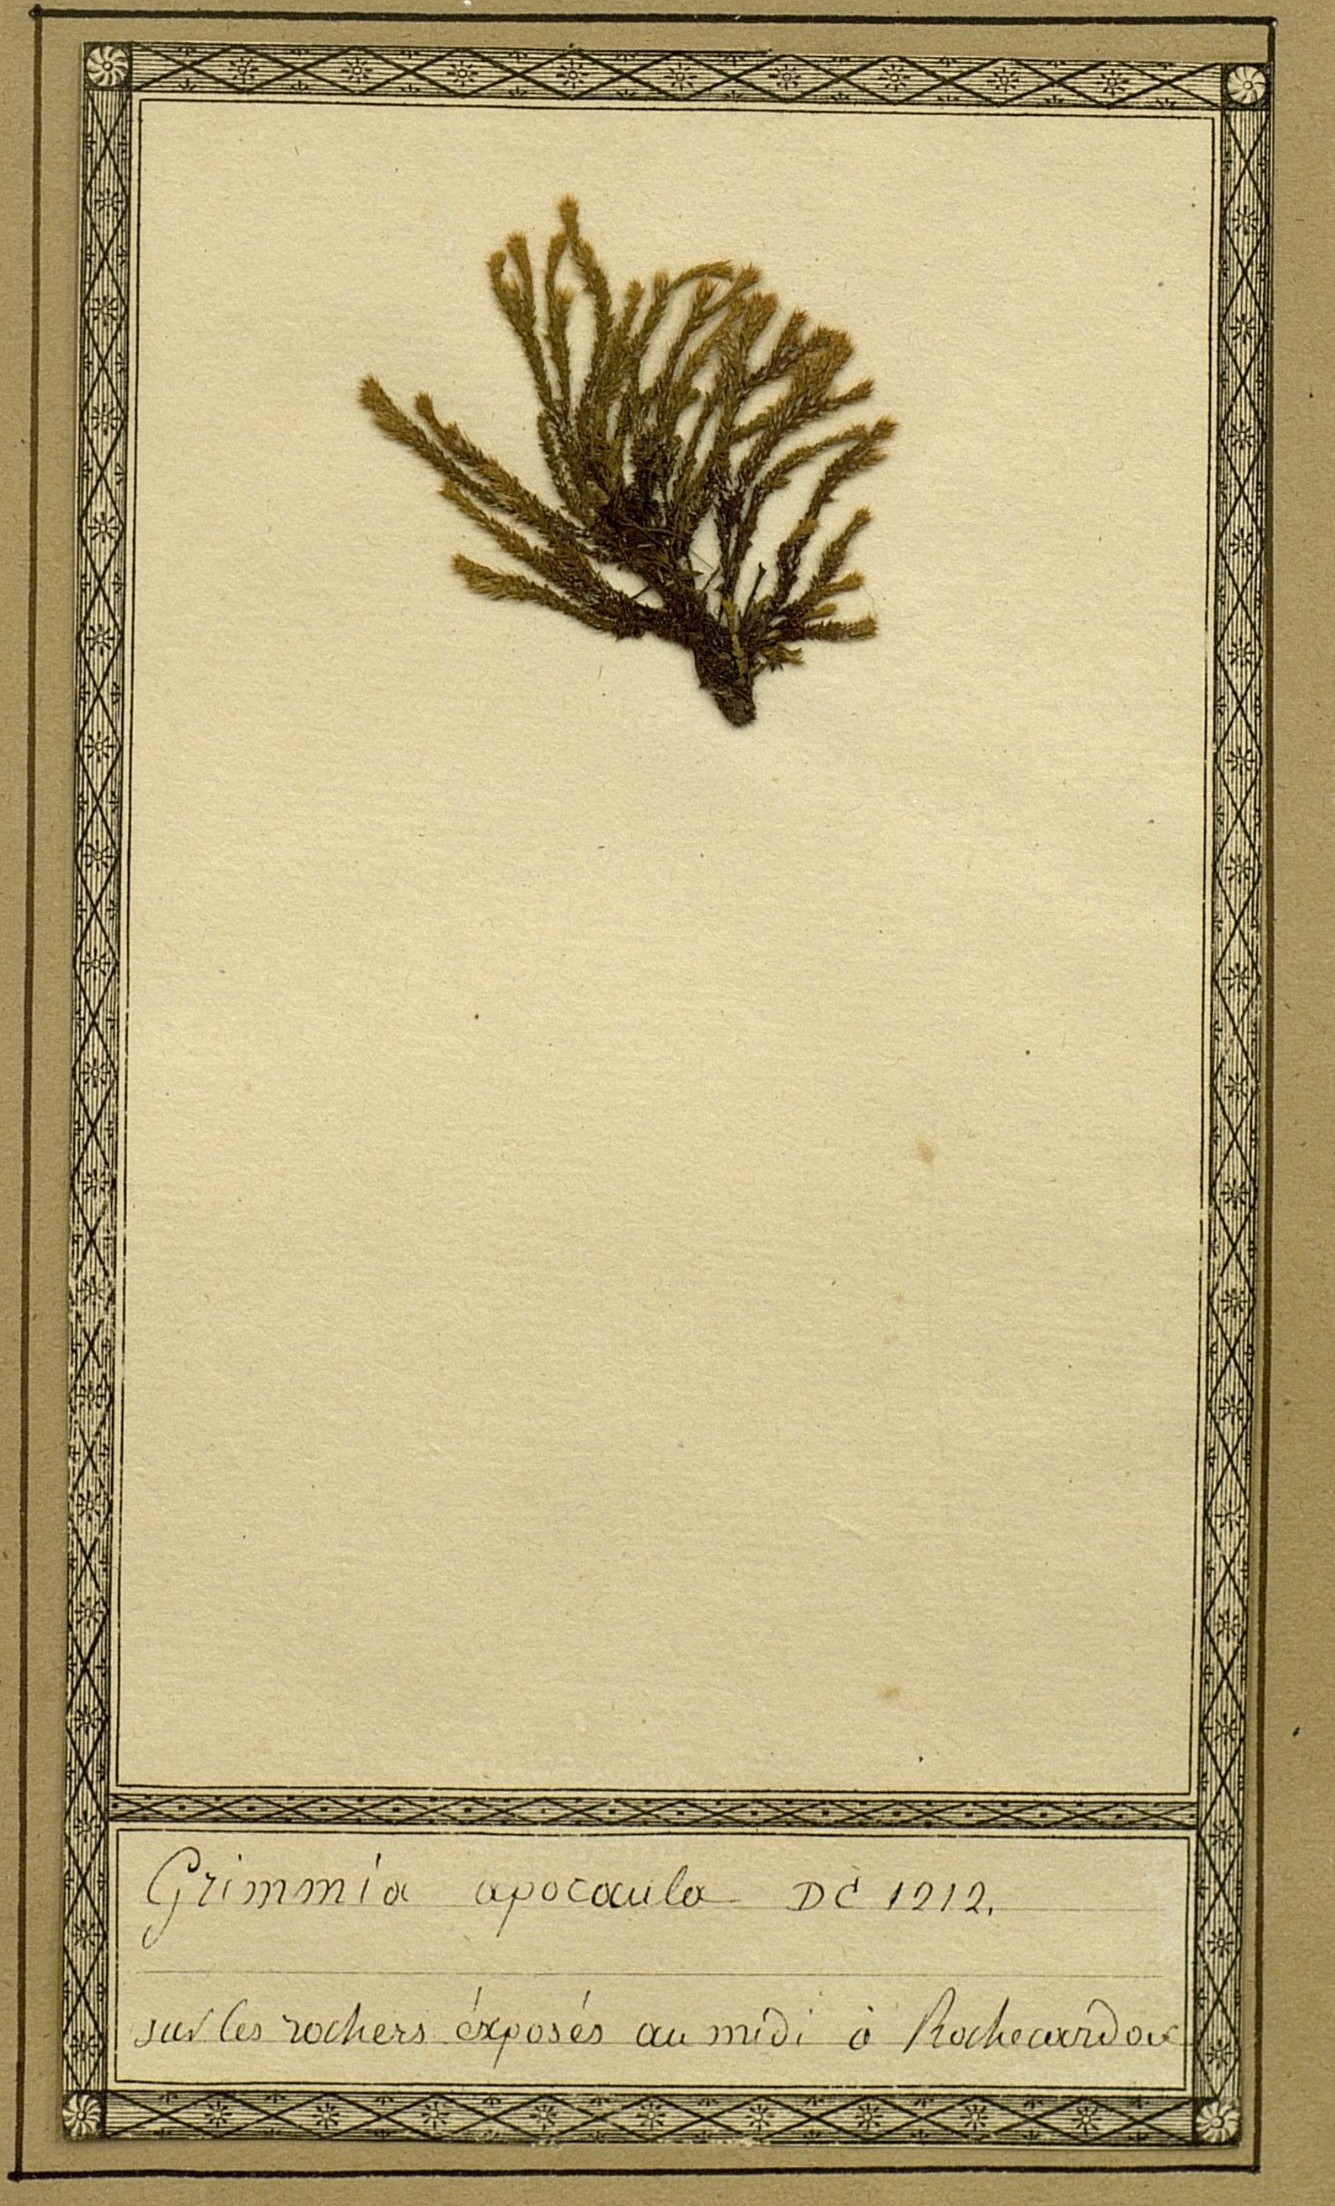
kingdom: Plantae
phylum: Bryophyta
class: Bryopsida
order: Grimmiales
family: Grimmiaceae
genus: Grimmia
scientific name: Grimmia plagiopodia
